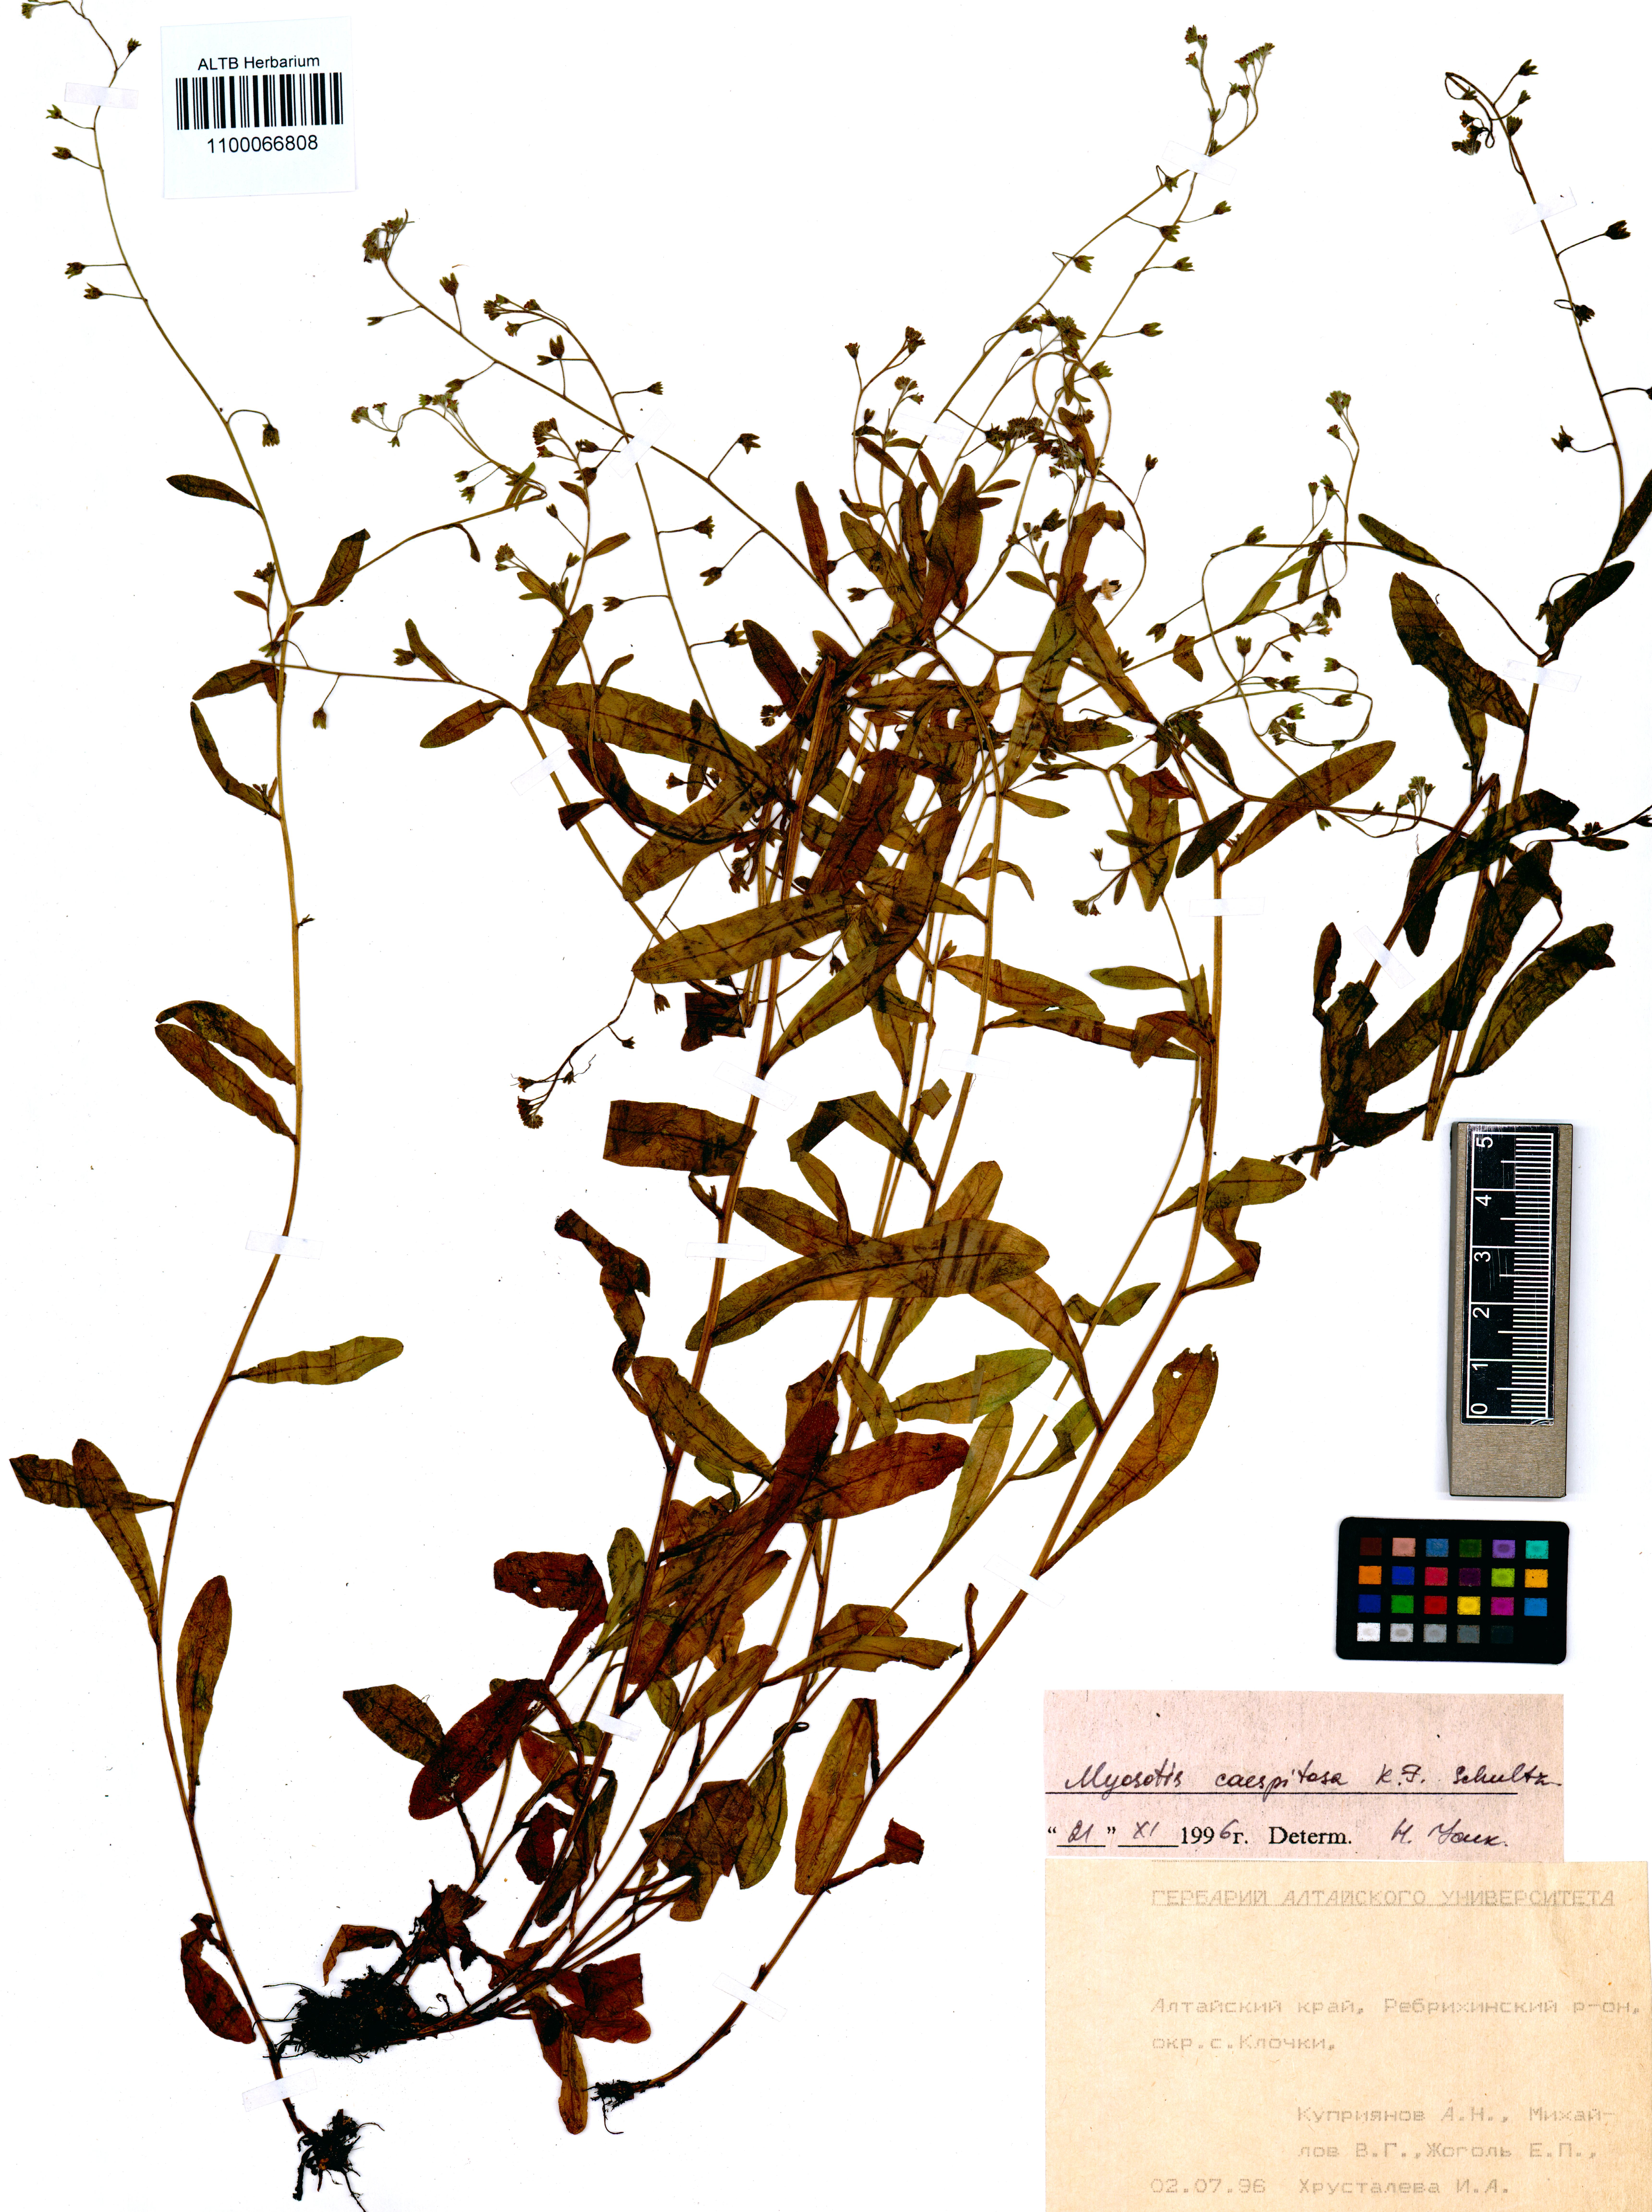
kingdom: Plantae
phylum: Tracheophyta
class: Magnoliopsida
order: Boraginales
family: Boraginaceae
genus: Myosotis
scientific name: Myosotis laxa
